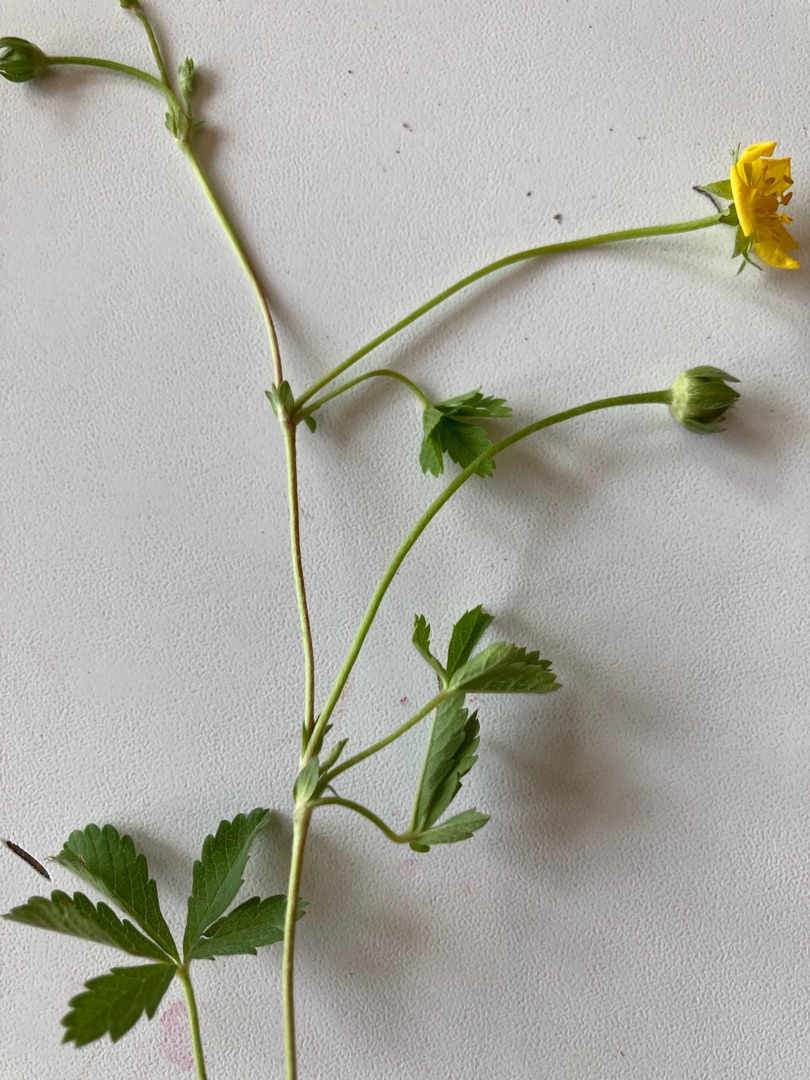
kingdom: Plantae
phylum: Tracheophyta
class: Magnoliopsida
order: Rosales
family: Rosaceae
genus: Potentilla
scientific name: Potentilla reptans
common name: Krybende potentil
